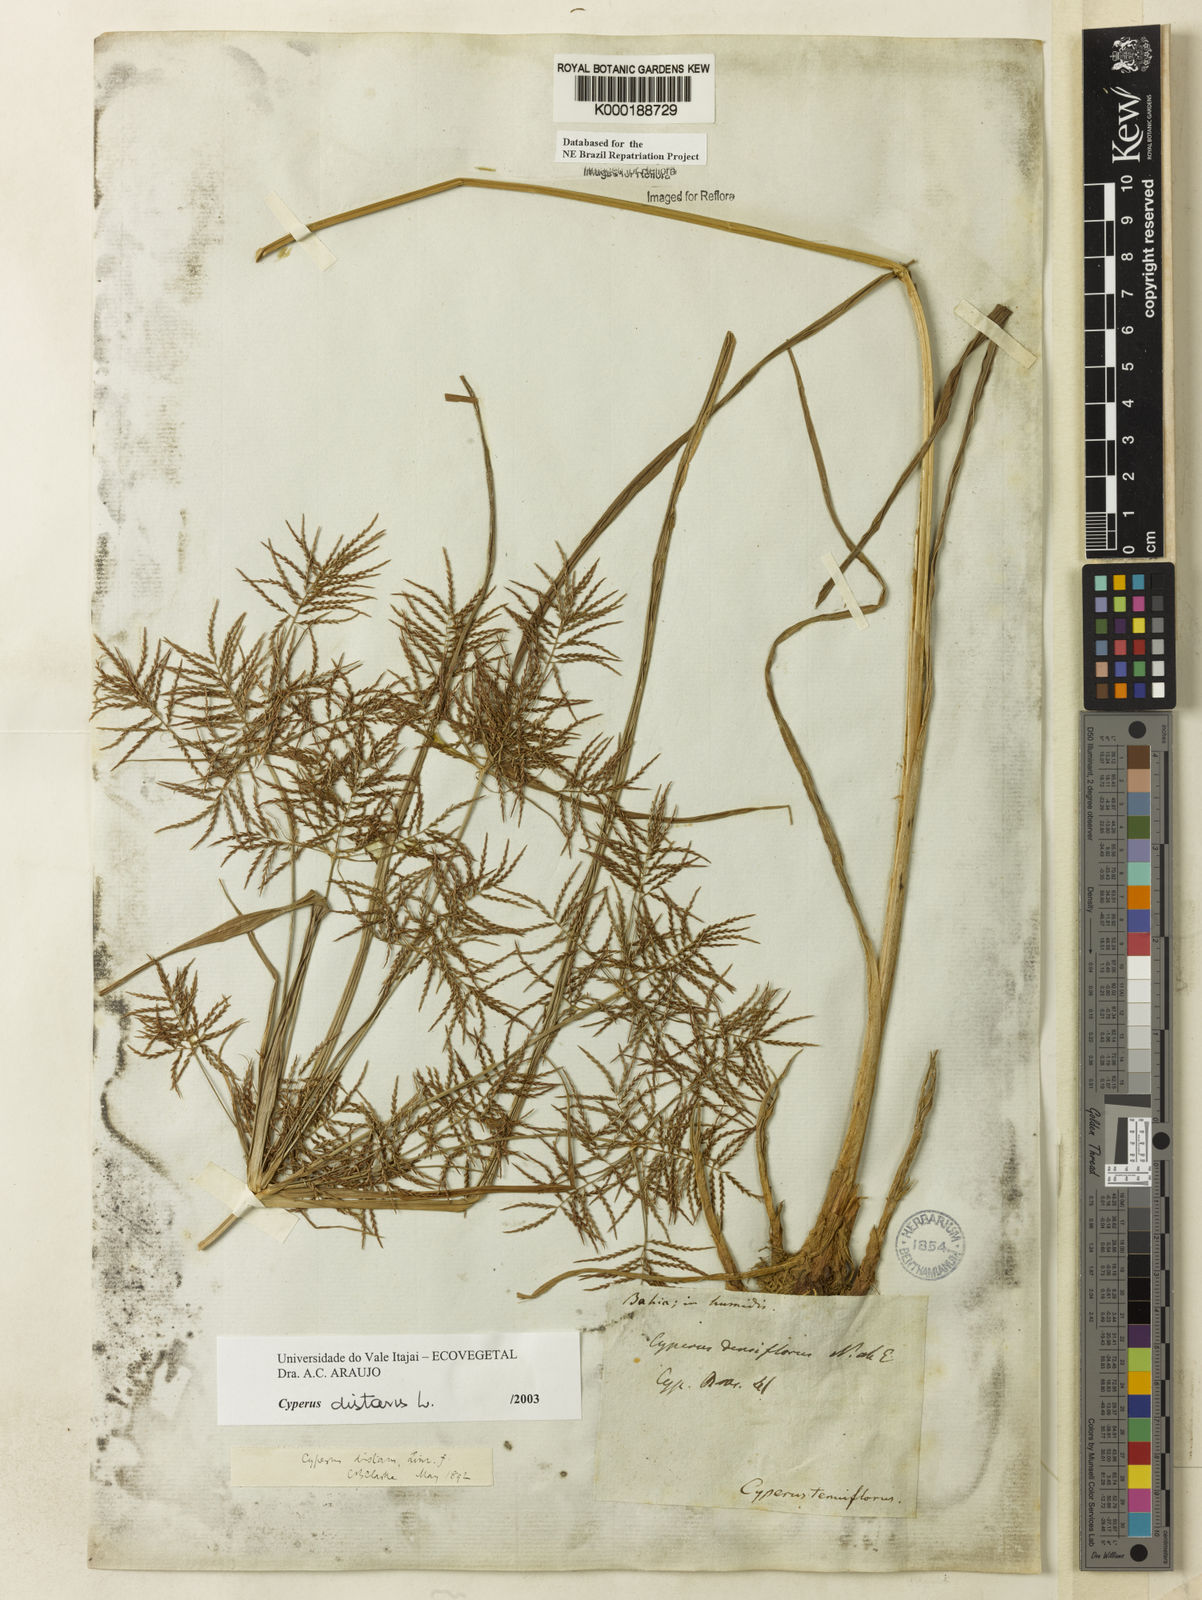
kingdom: Plantae
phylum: Tracheophyta
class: Liliopsida
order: Poales
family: Cyperaceae
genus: Cyperus
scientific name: Cyperus distans
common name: Slender cyperus
